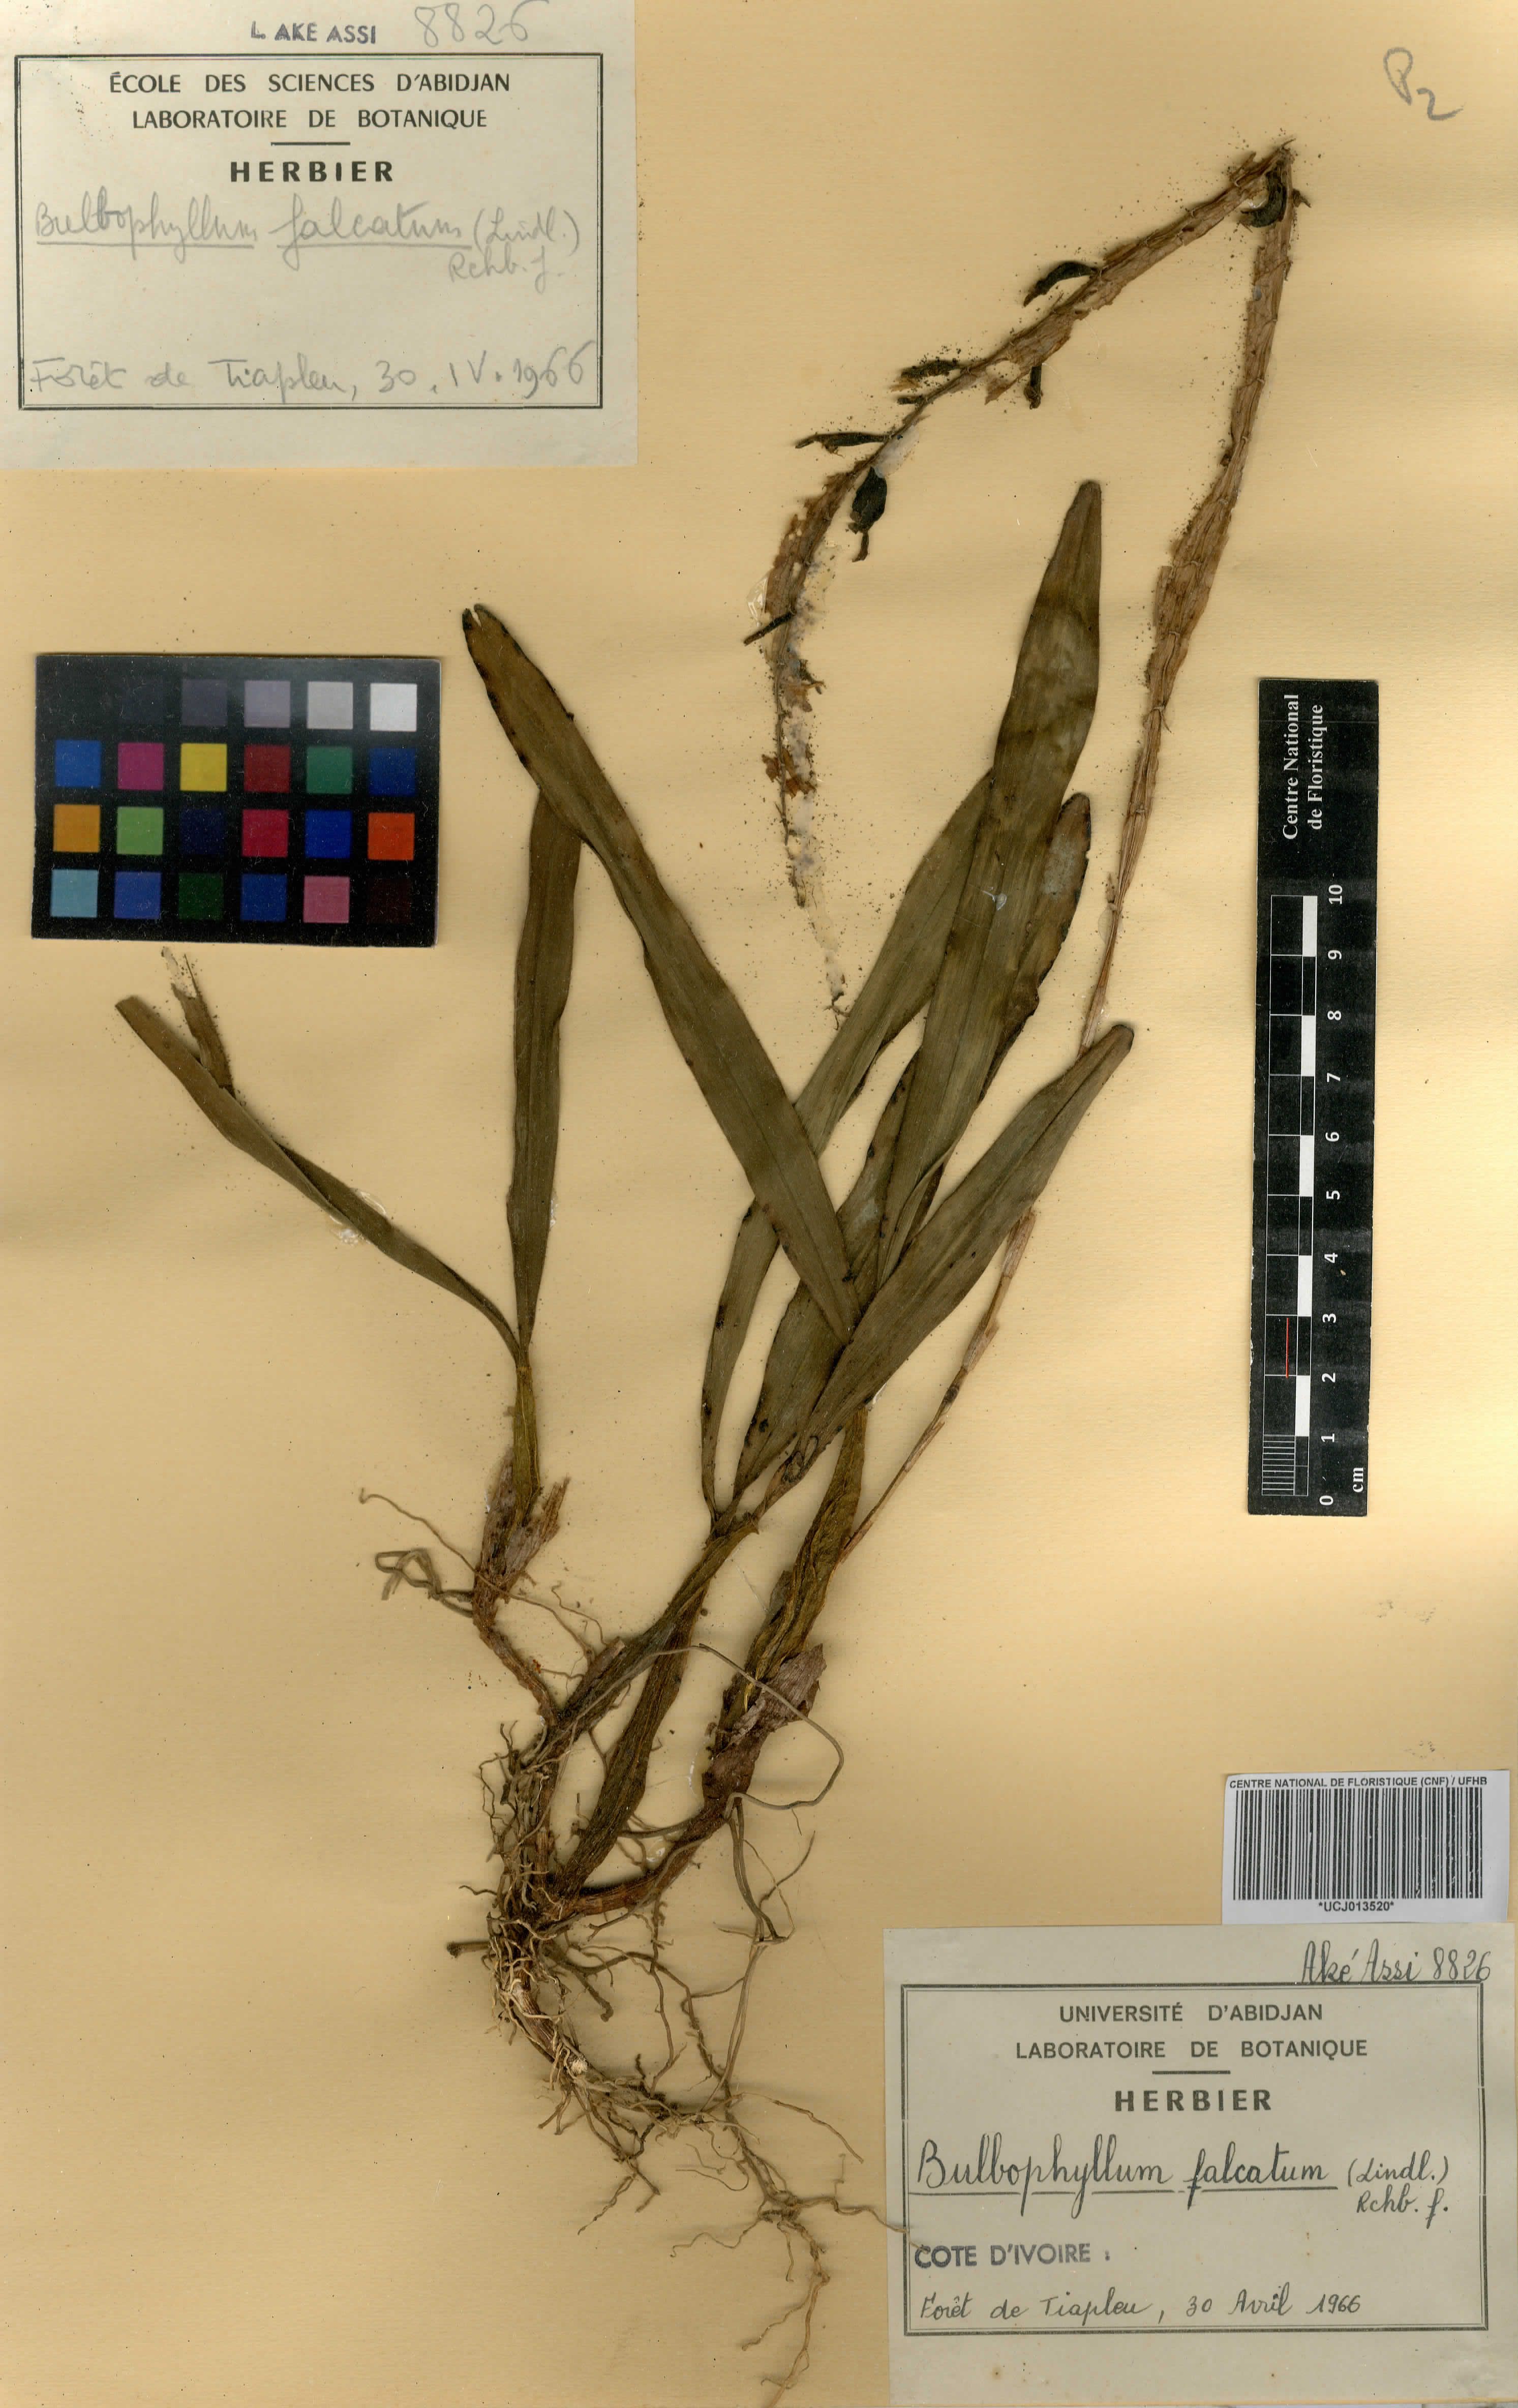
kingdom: Plantae
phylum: Tracheophyta
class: Liliopsida
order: Asparagales
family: Orchidaceae
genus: Bulbophyllum
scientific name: Bulbophyllum falcatum
